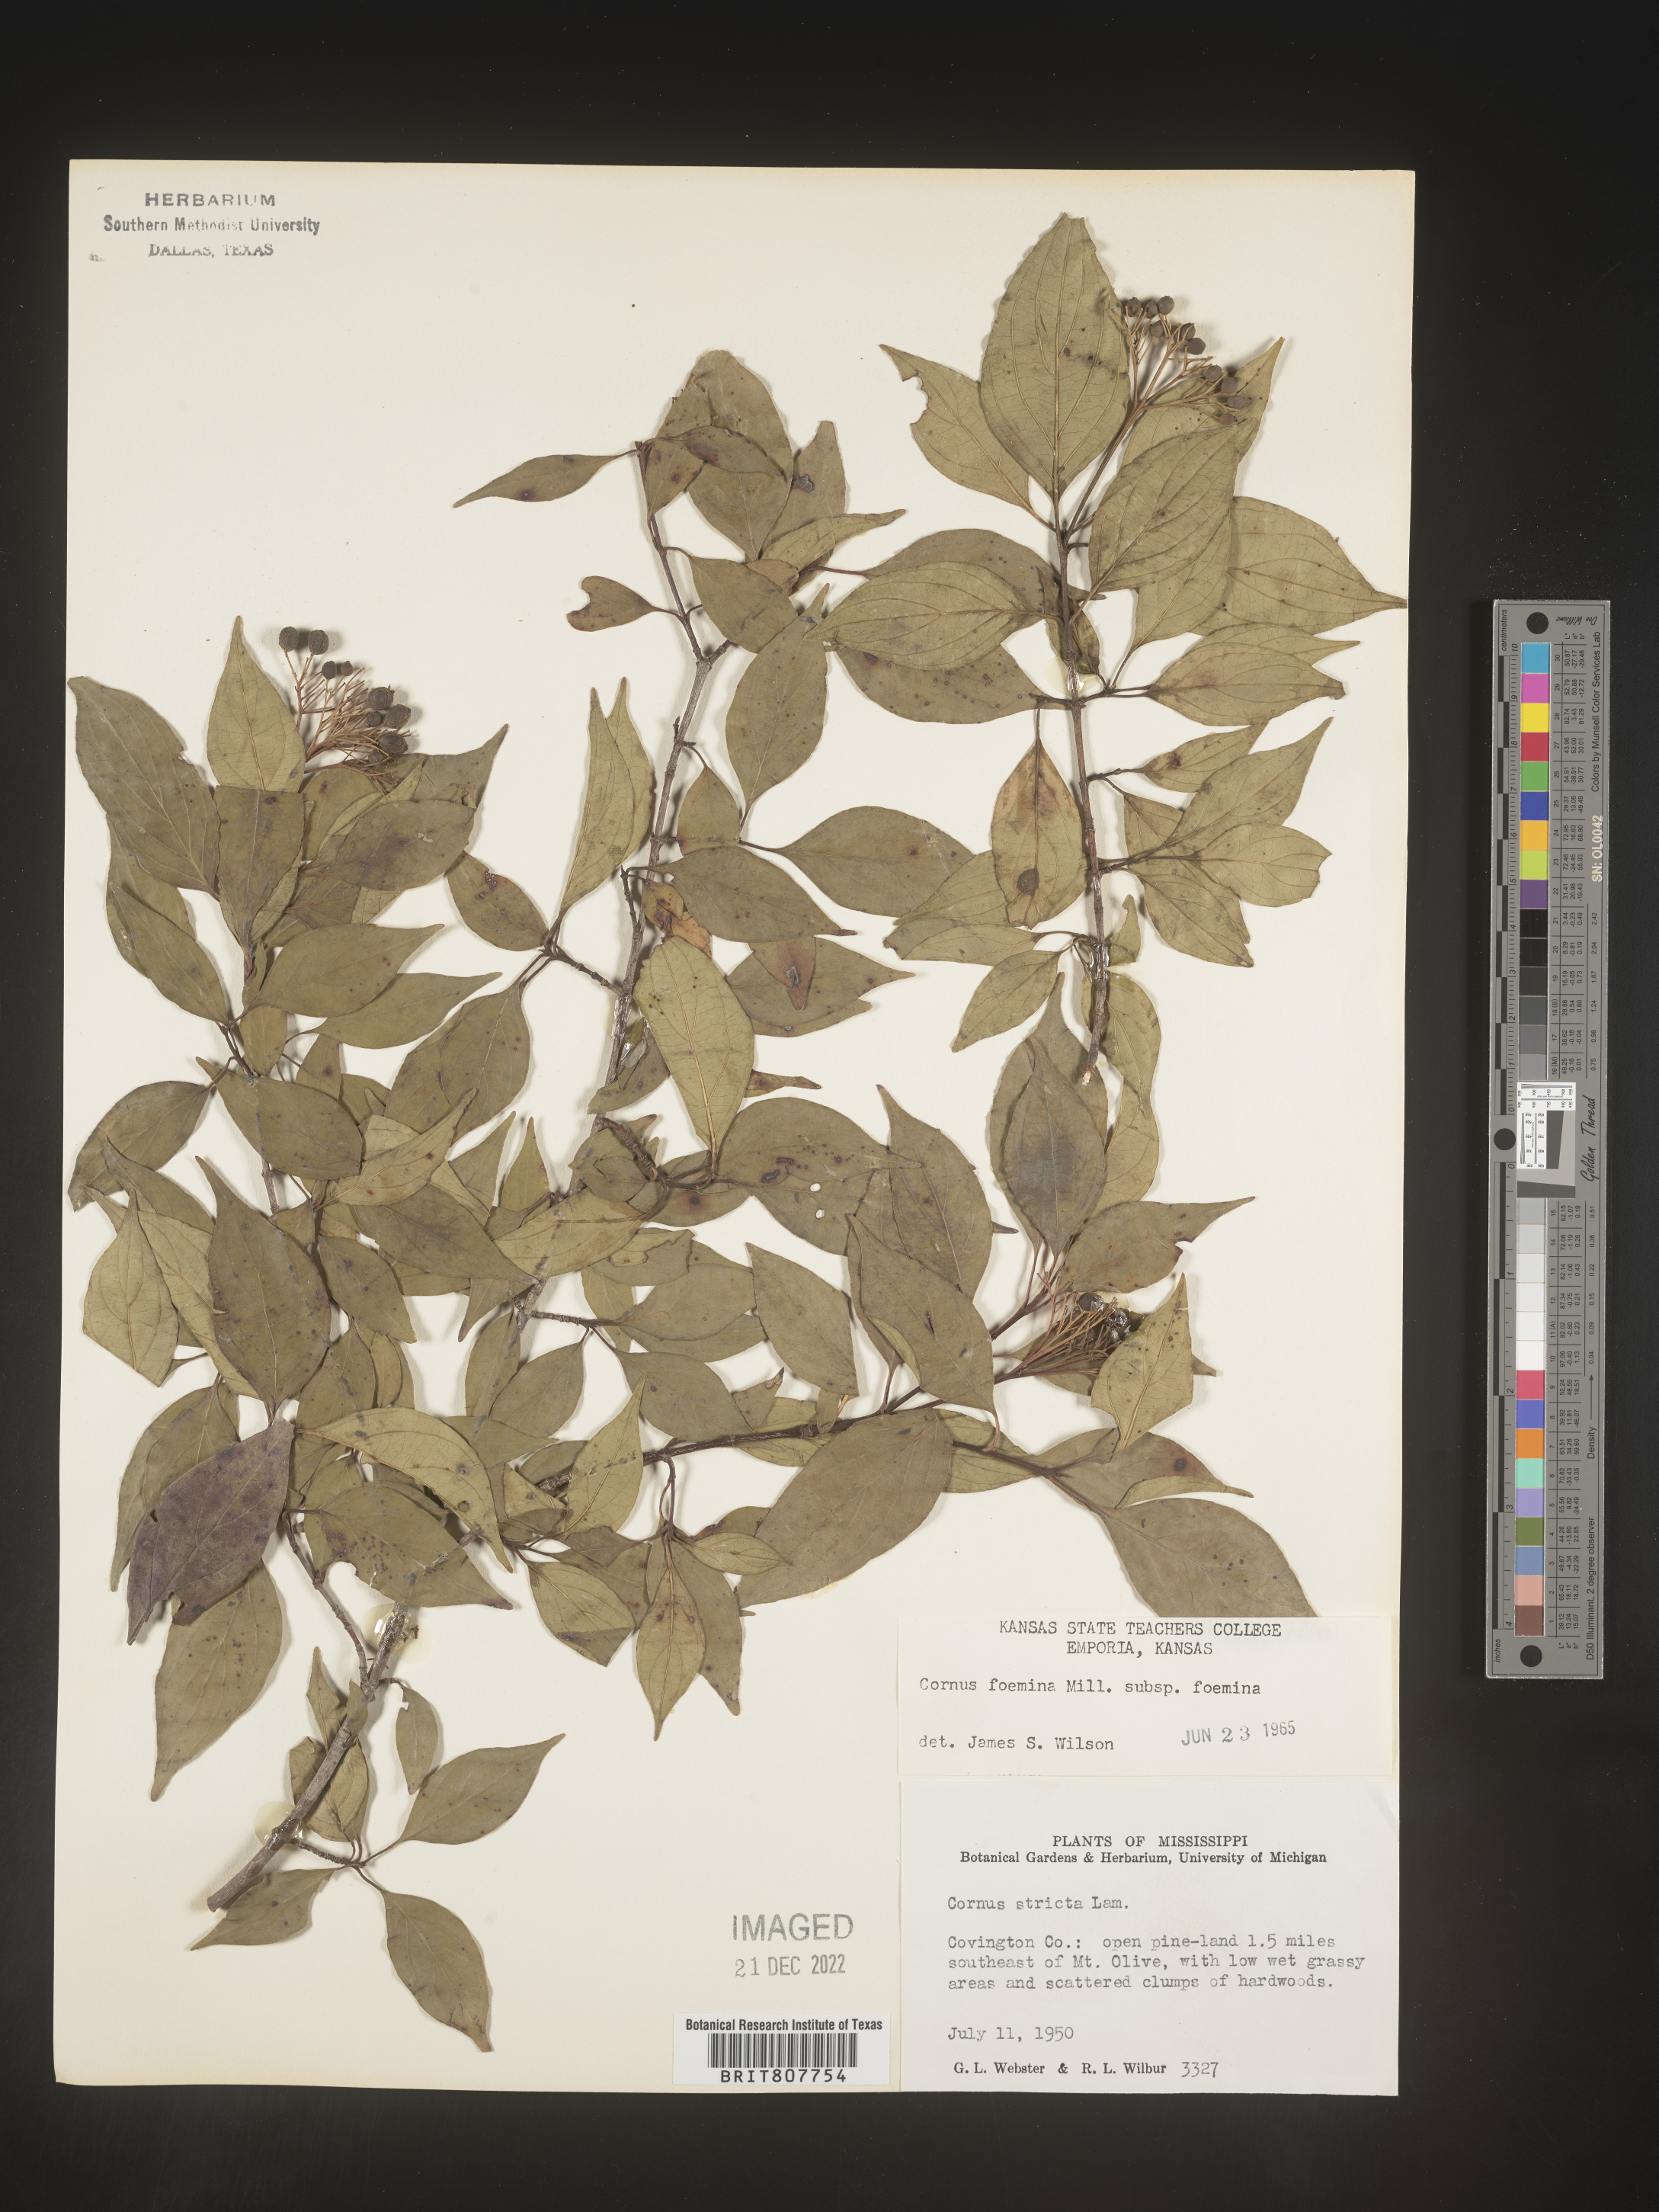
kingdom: Plantae
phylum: Tracheophyta
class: Magnoliopsida
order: Cornales
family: Cornaceae
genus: Cornus
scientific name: Cornus foemina
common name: Swamp dogwood
